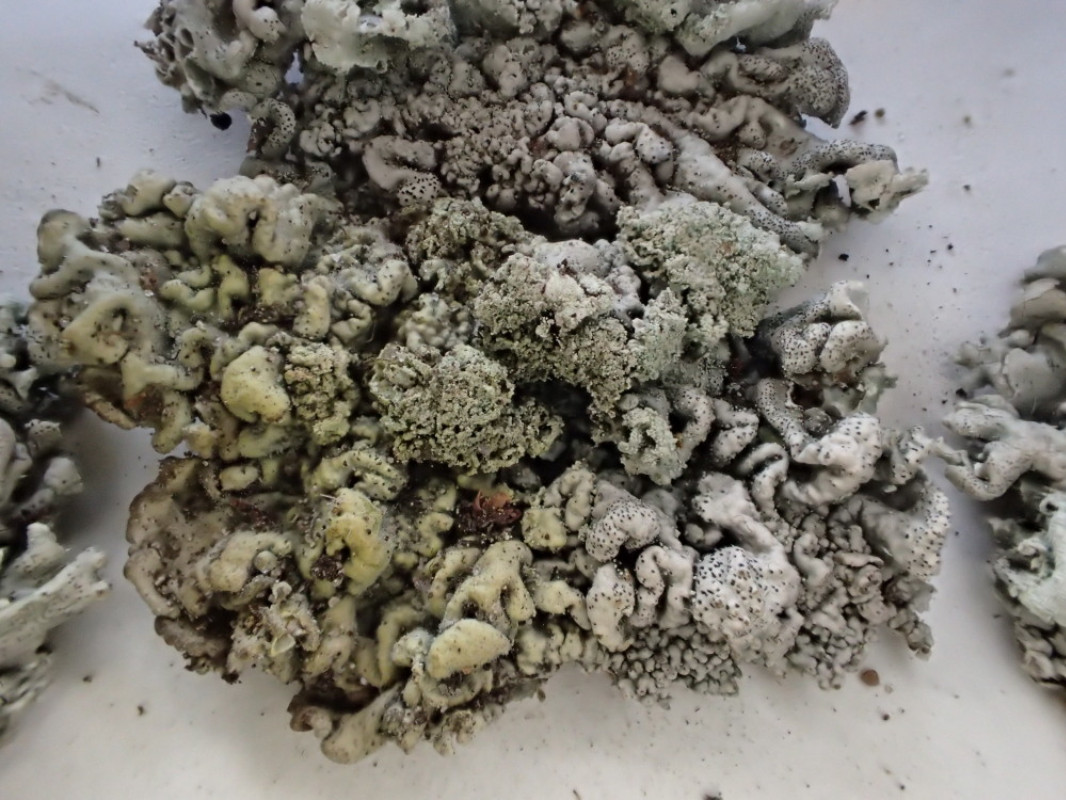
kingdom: Fungi
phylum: Ascomycota
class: Lecanoromycetes
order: Lecanorales
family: Parmeliaceae
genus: Hypogymnia
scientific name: Hypogymnia physodes
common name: almindelig kvistlav
